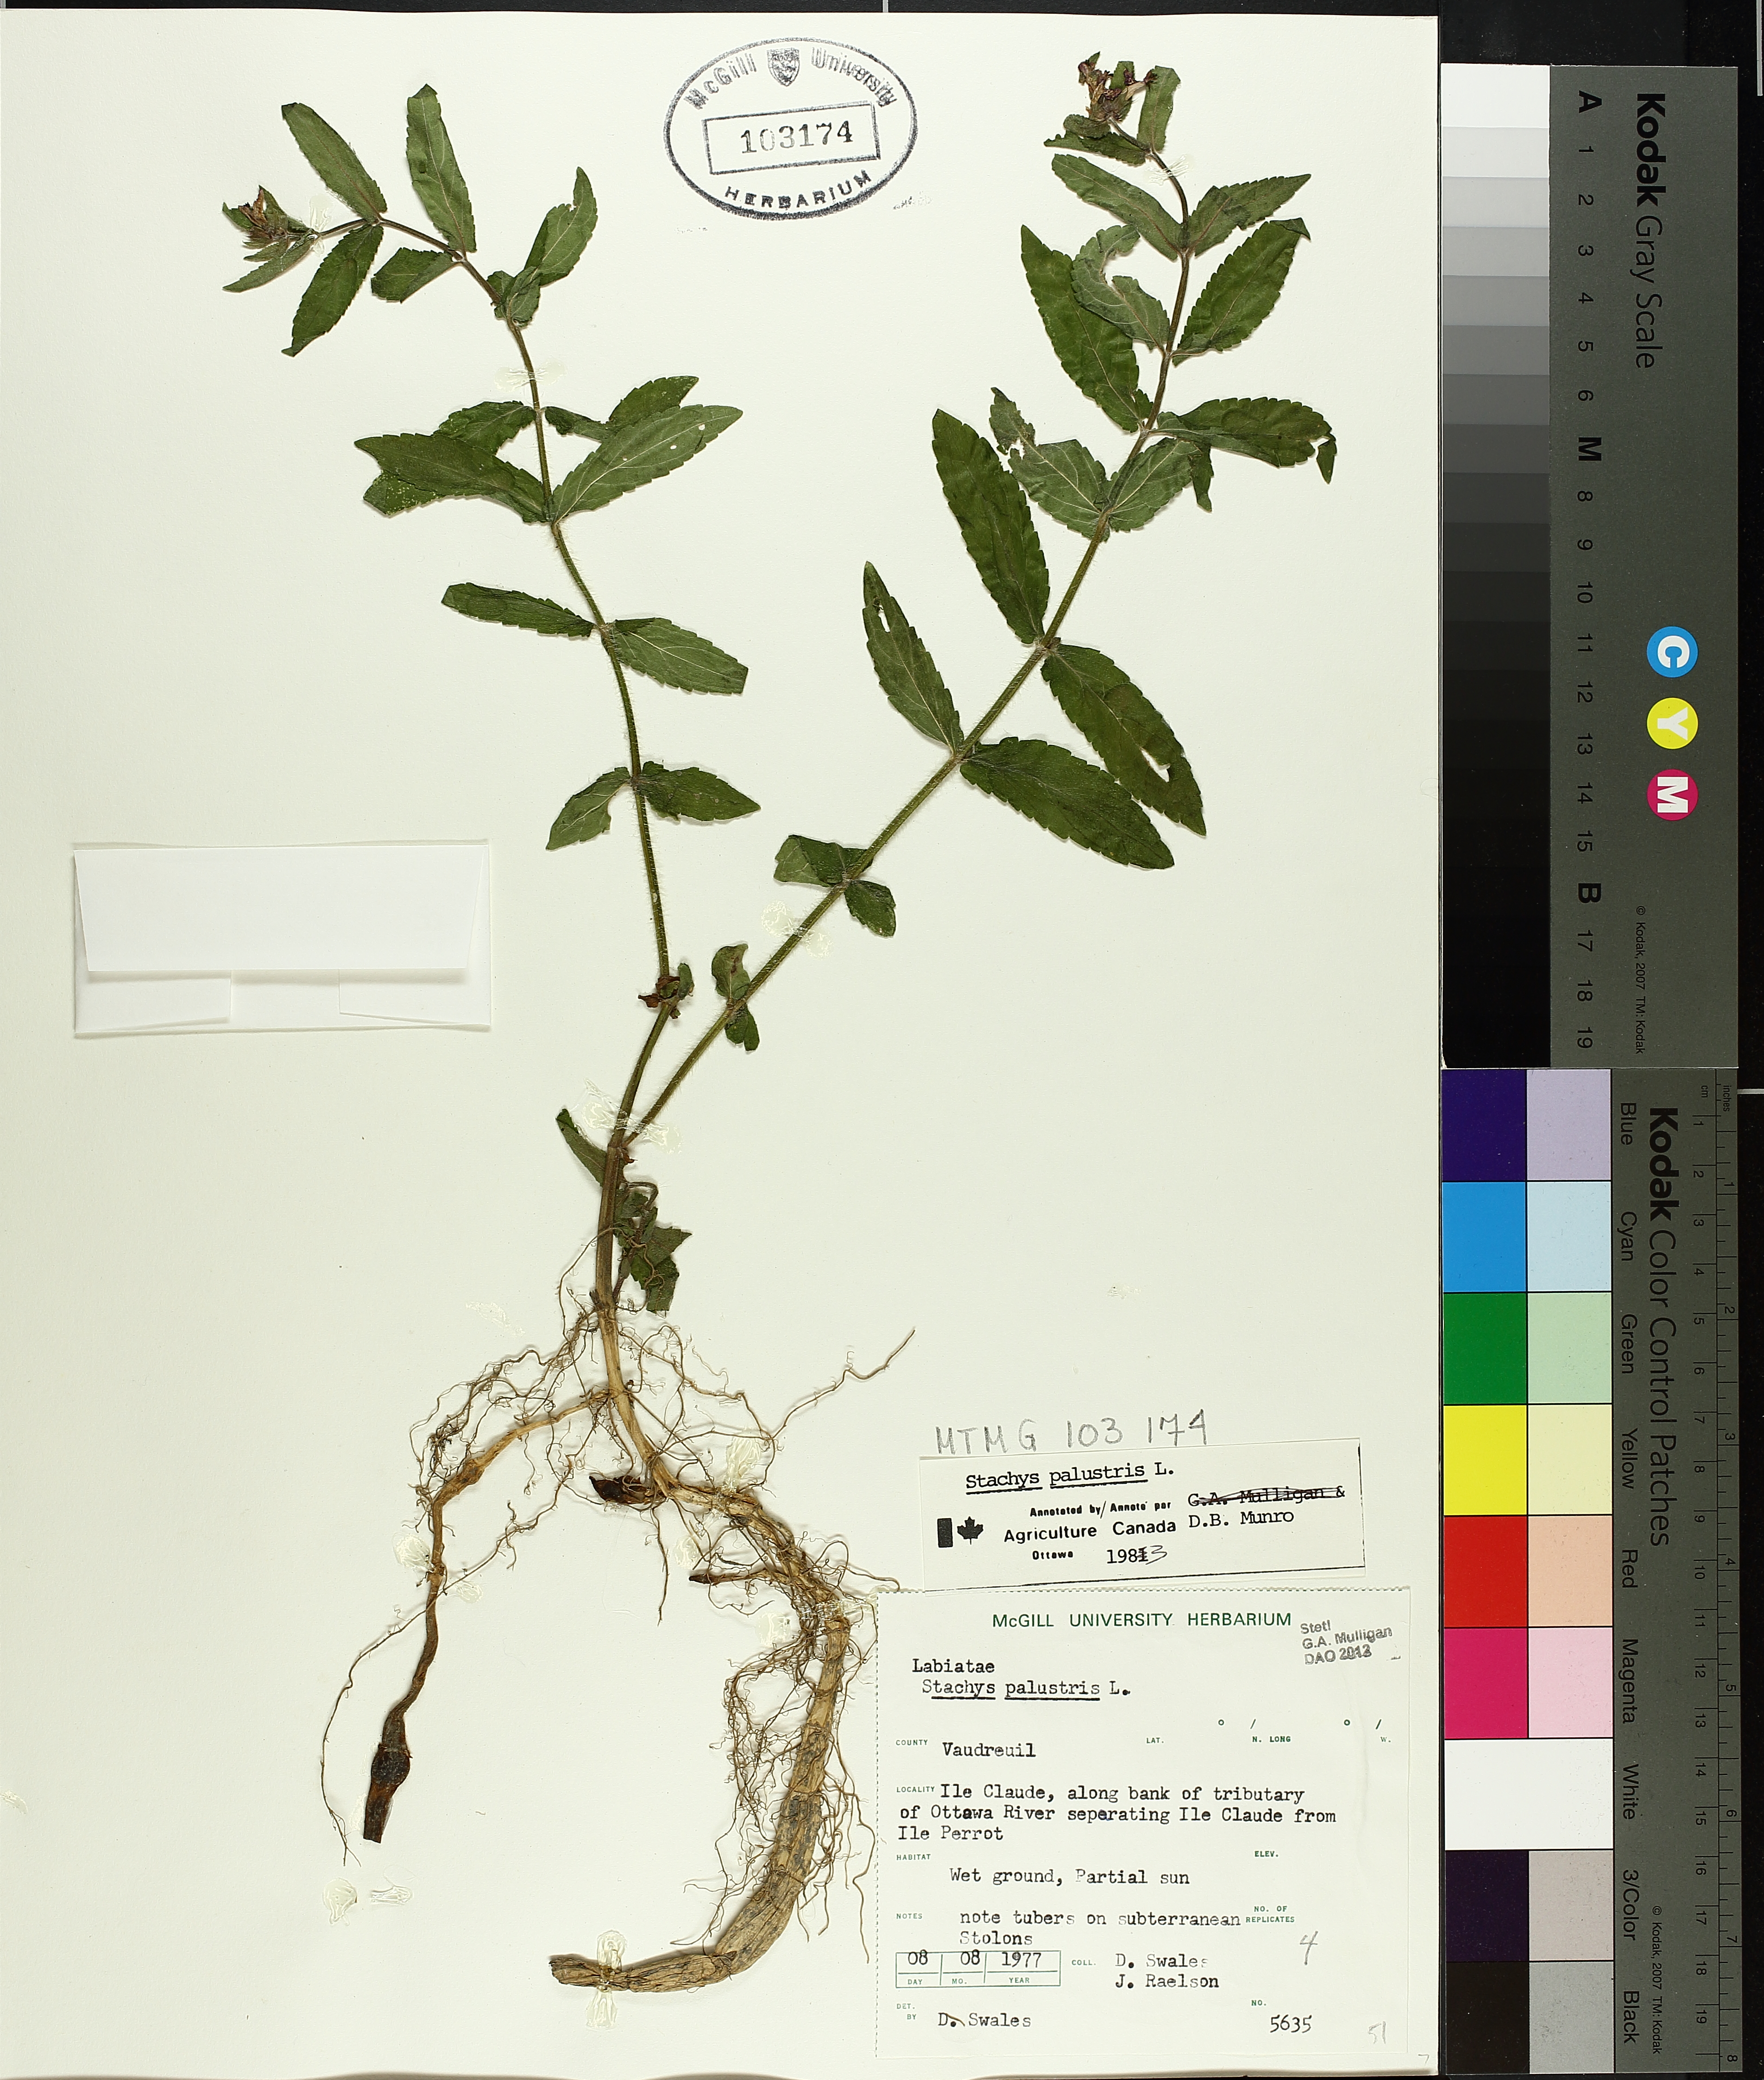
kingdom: Plantae
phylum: Tracheophyta
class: Magnoliopsida
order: Lamiales
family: Lamiaceae
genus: Stachys
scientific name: Stachys palustris
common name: Marsh woundwort
